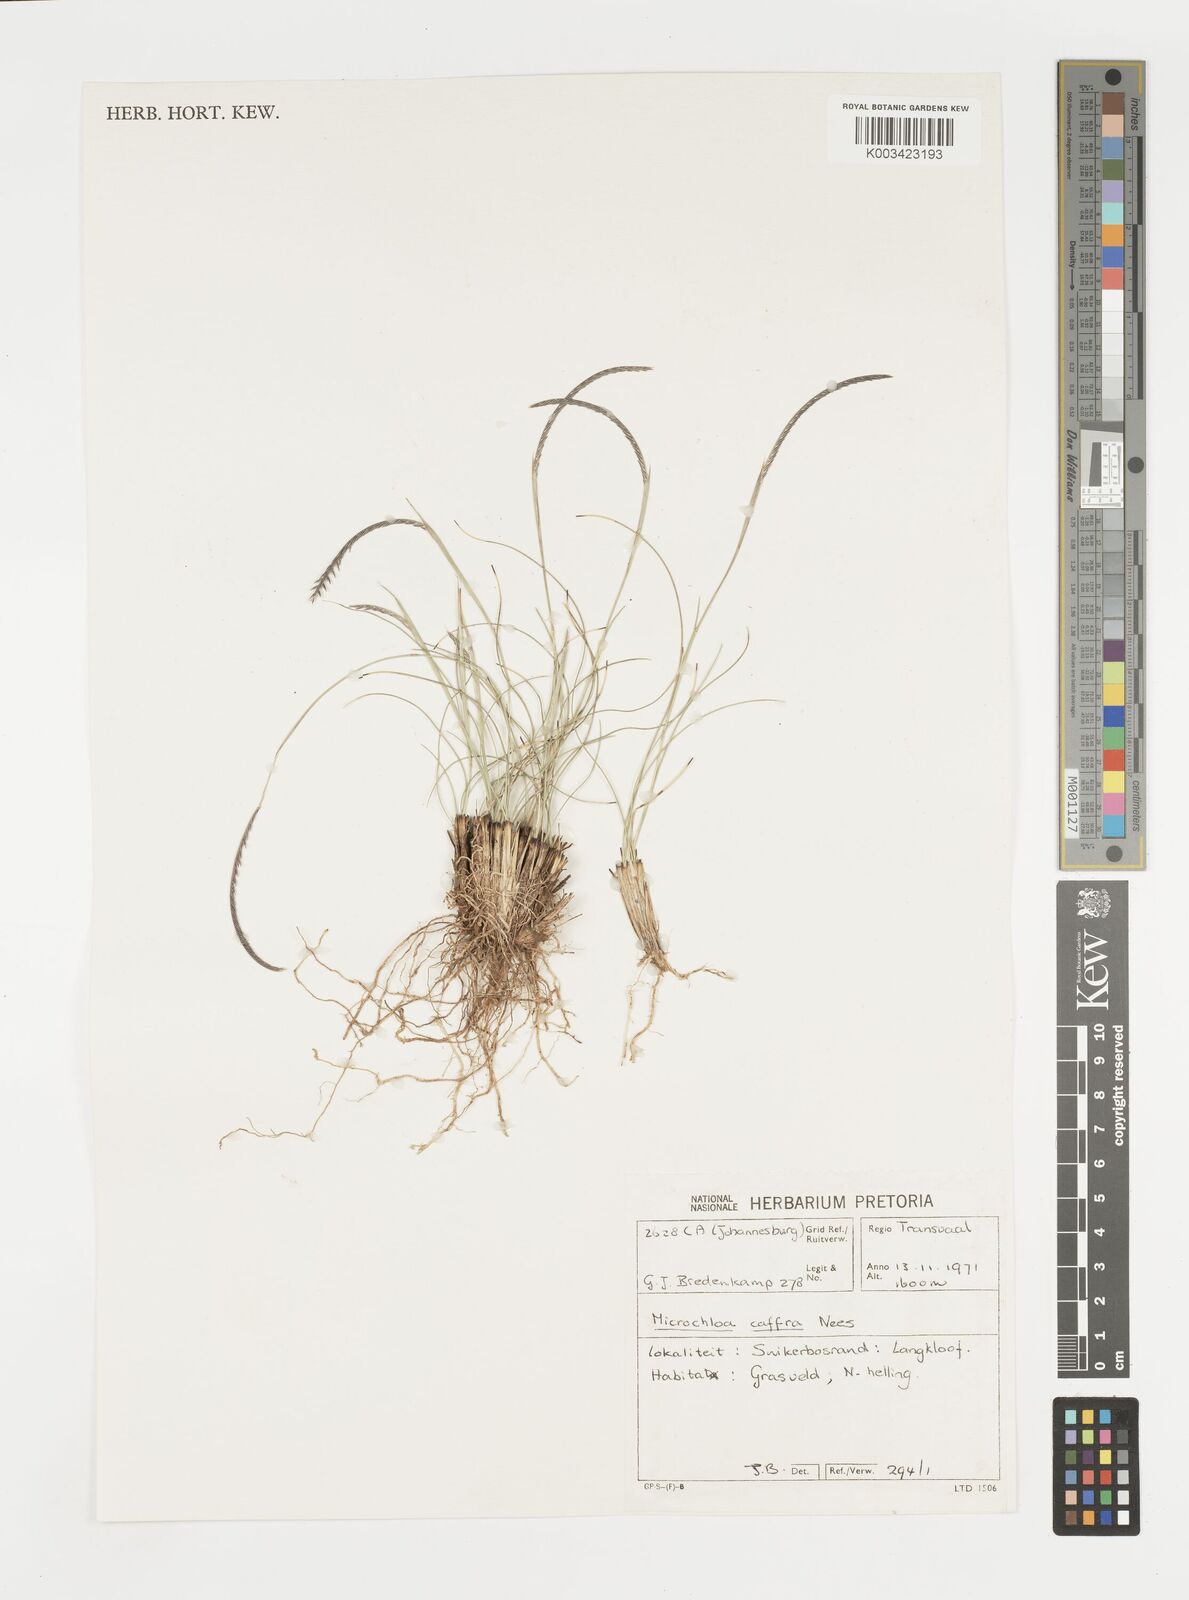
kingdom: Plantae
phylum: Tracheophyta
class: Liliopsida
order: Poales
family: Poaceae
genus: Microchloa
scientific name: Microchloa caffra
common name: Pincushion grass
